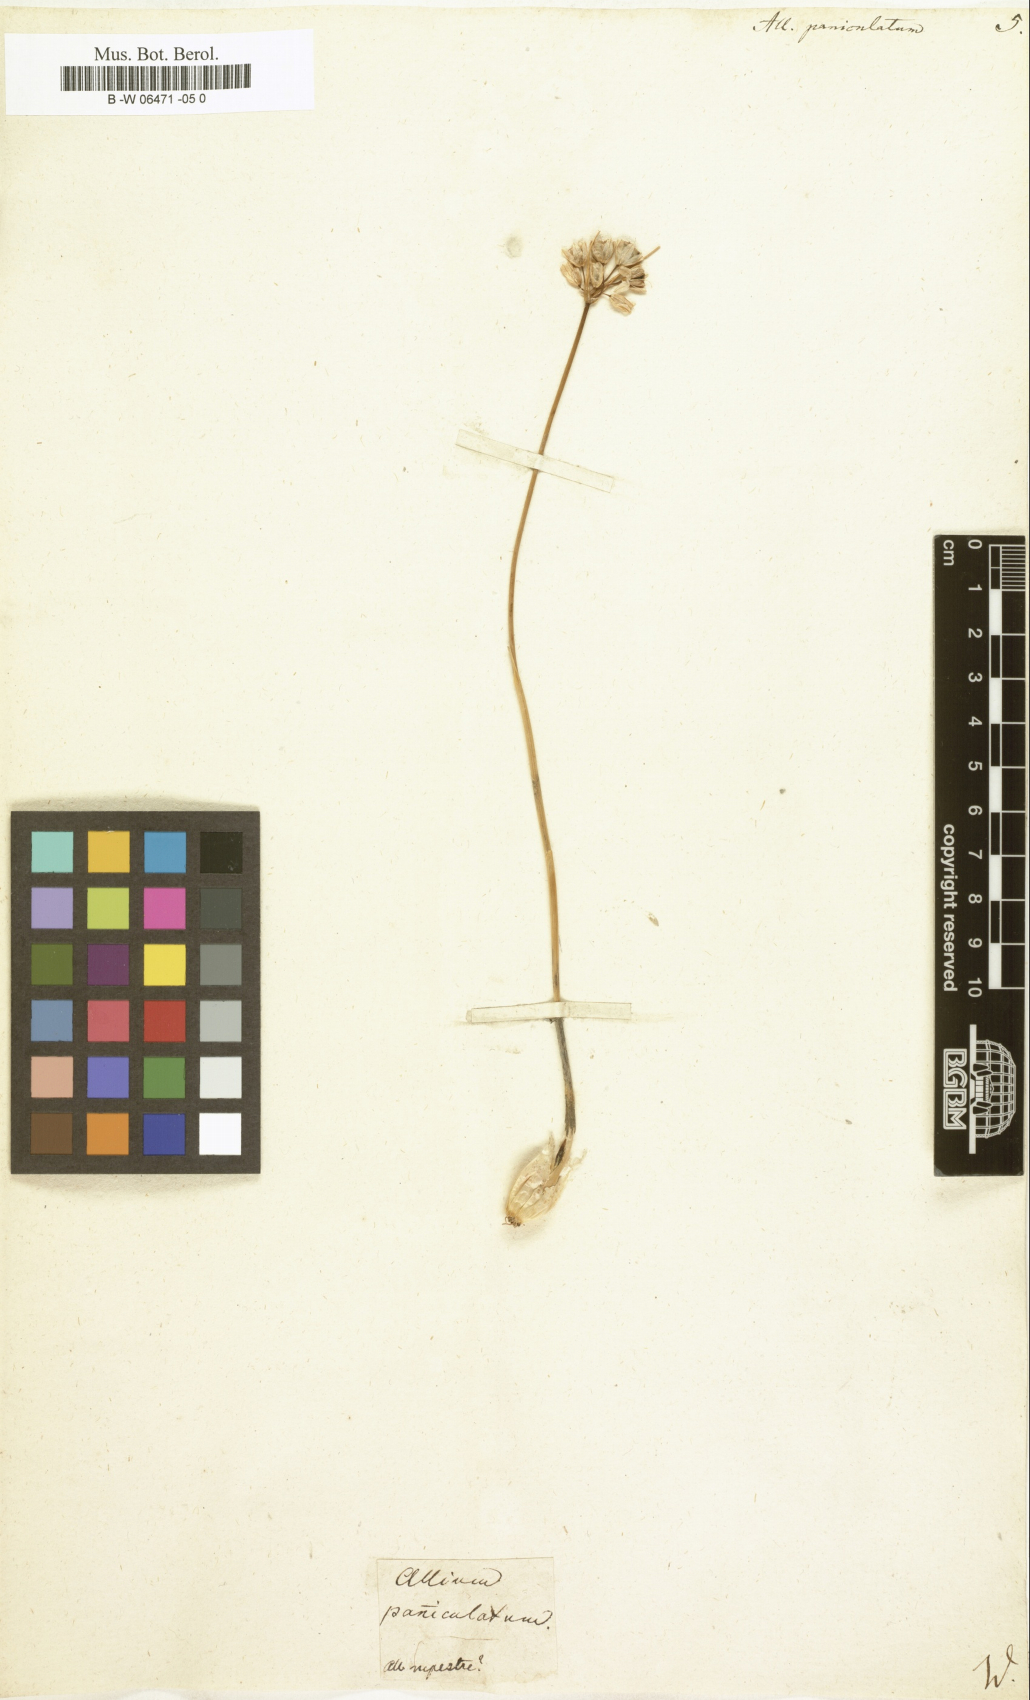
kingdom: Plantae
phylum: Tracheophyta
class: Liliopsida
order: Asparagales
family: Amaryllidaceae
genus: Allium
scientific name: Allium paniculatum
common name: Pale garlic
